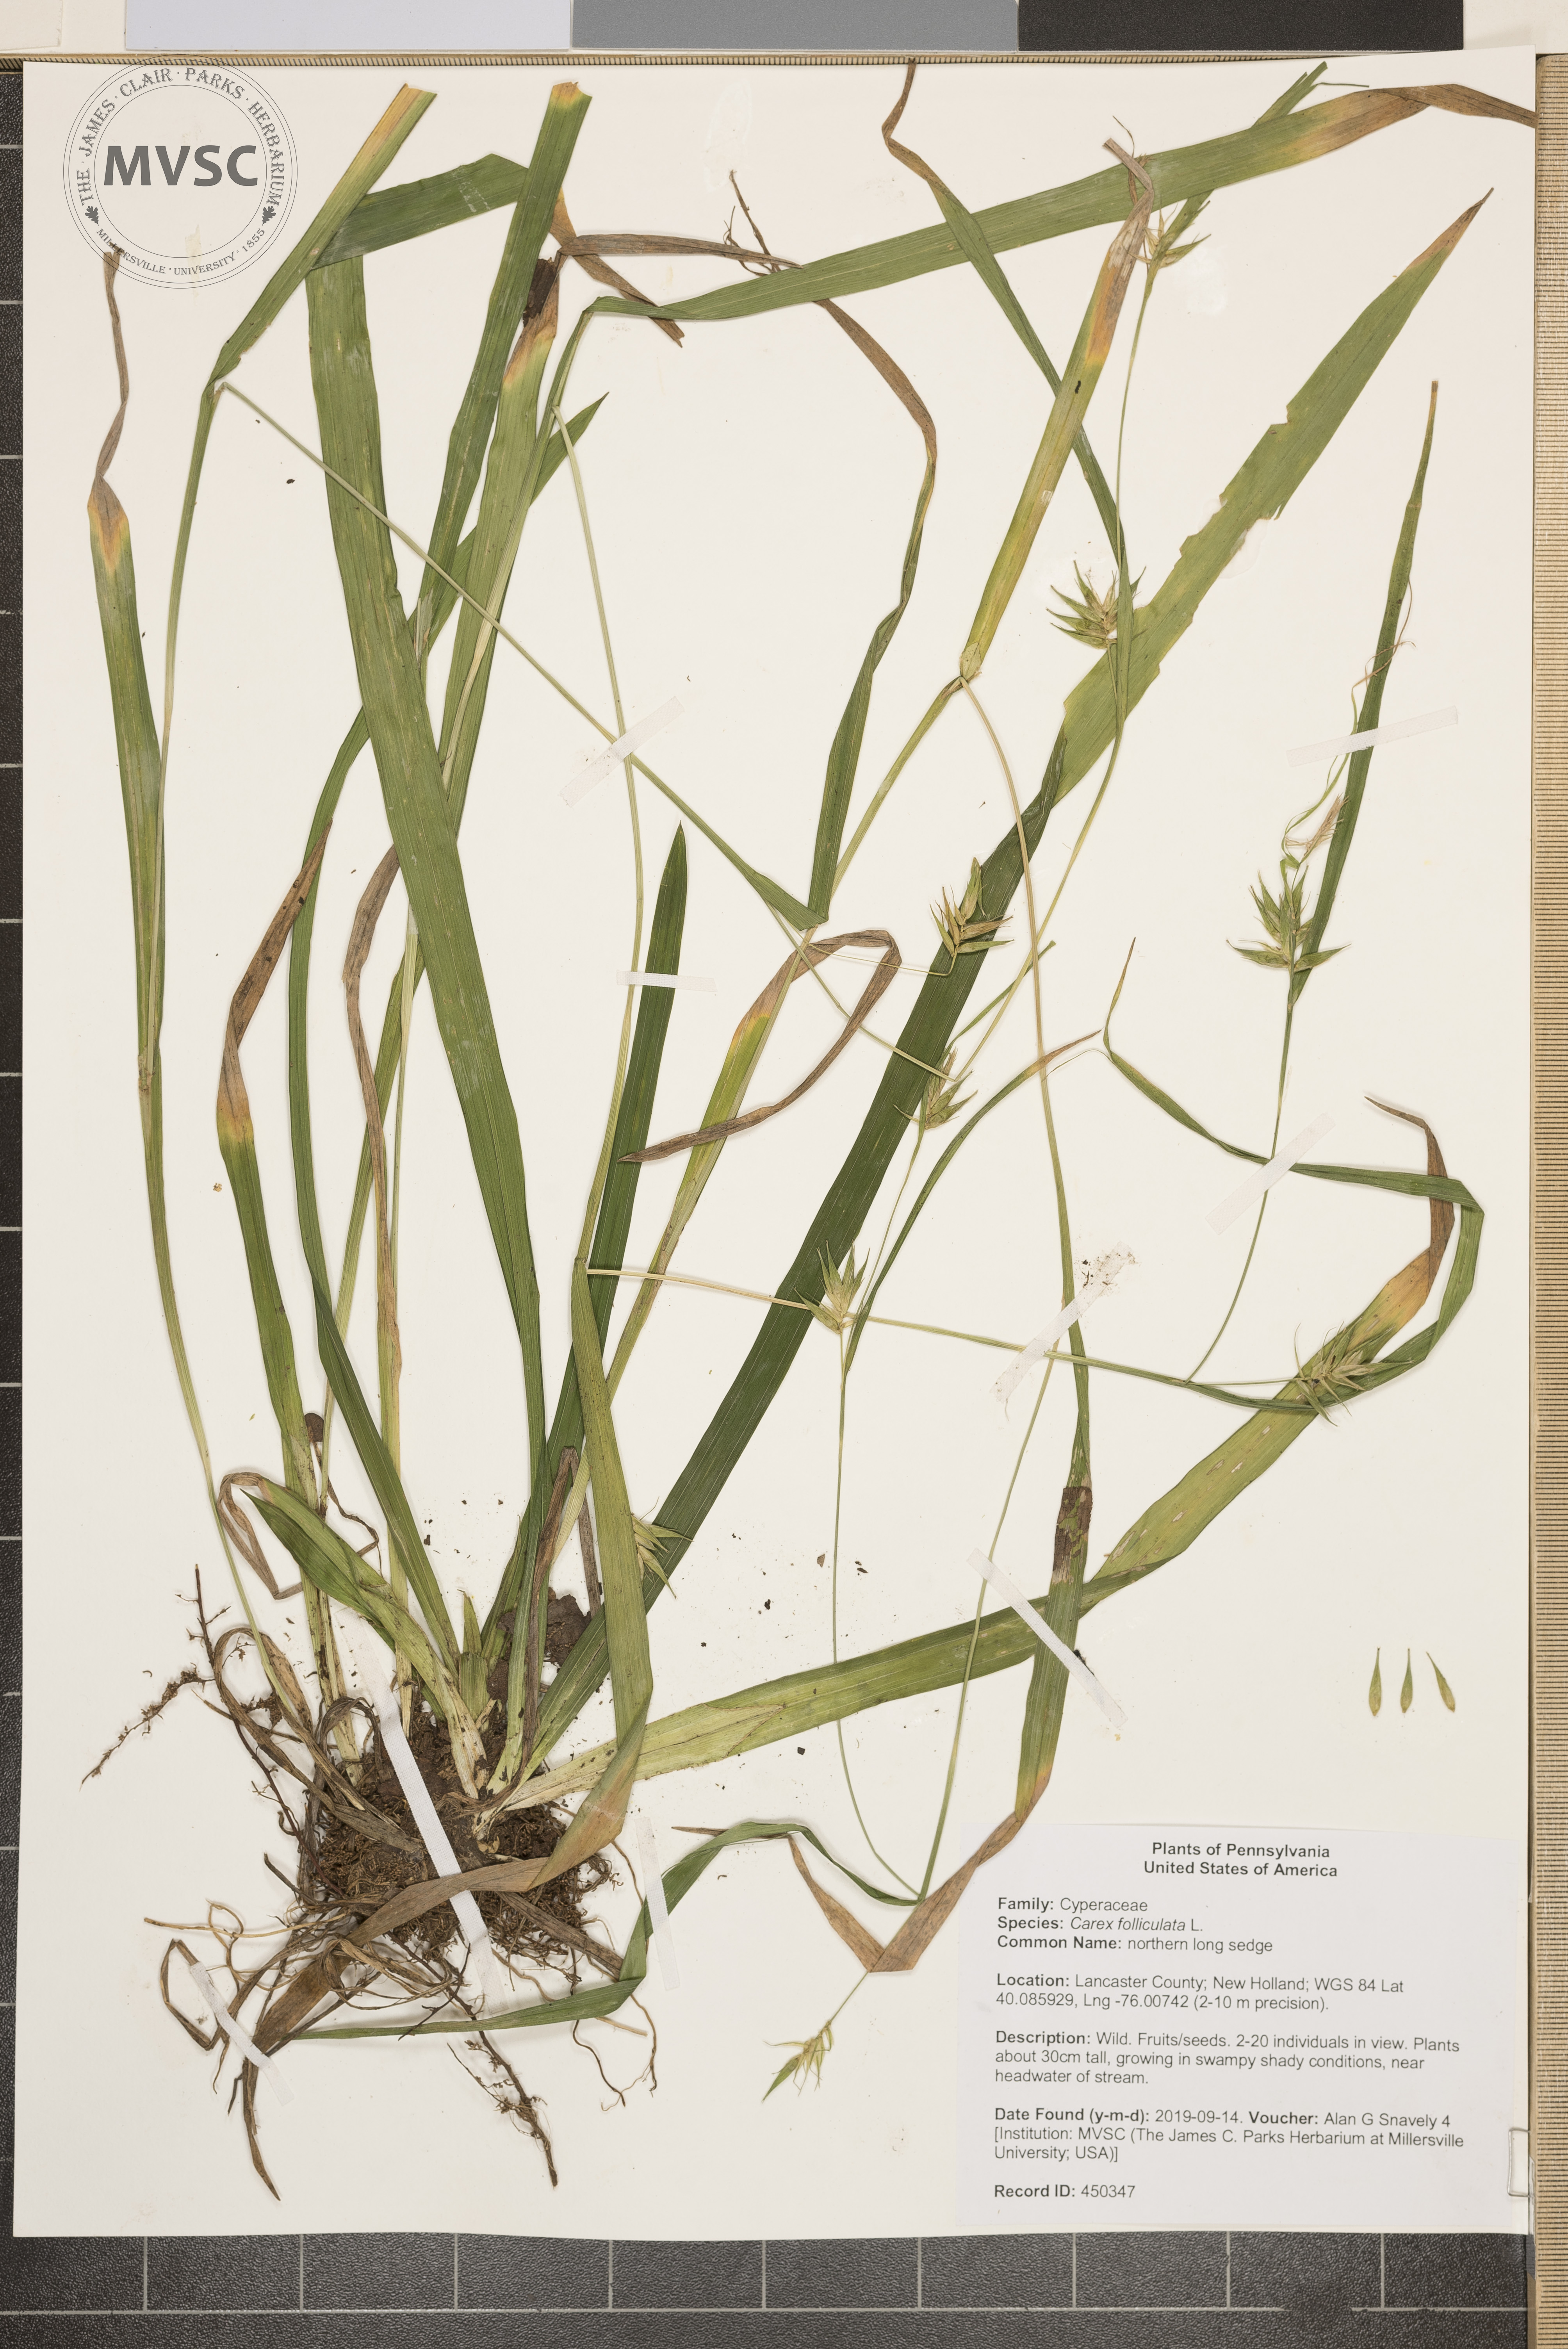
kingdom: Plantae
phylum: Tracheophyta
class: Liliopsida
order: Poales
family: Cyperaceae
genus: Carex
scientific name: Carex folliculata
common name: northern long sedge
